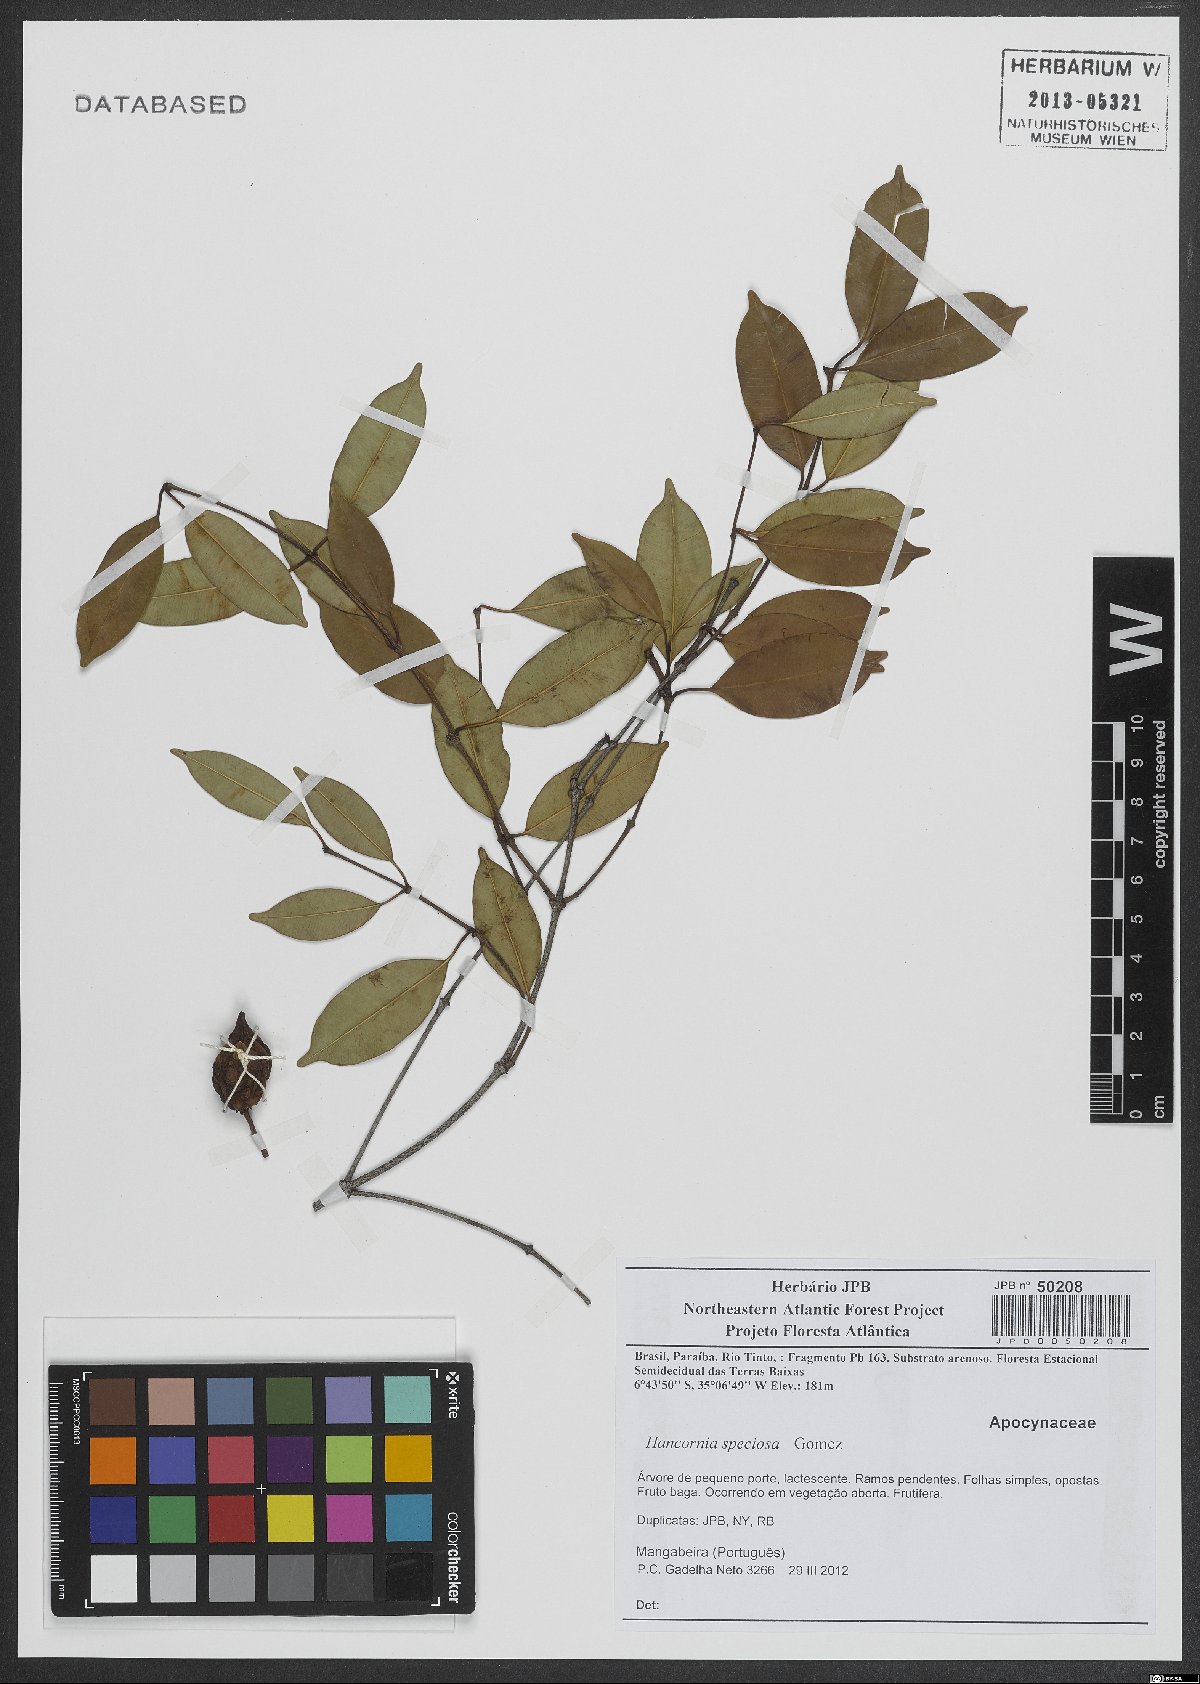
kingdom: Plantae
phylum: Tracheophyta
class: Magnoliopsida
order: Gentianales
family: Apocynaceae
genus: Hancornia
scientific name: Hancornia speciosa
